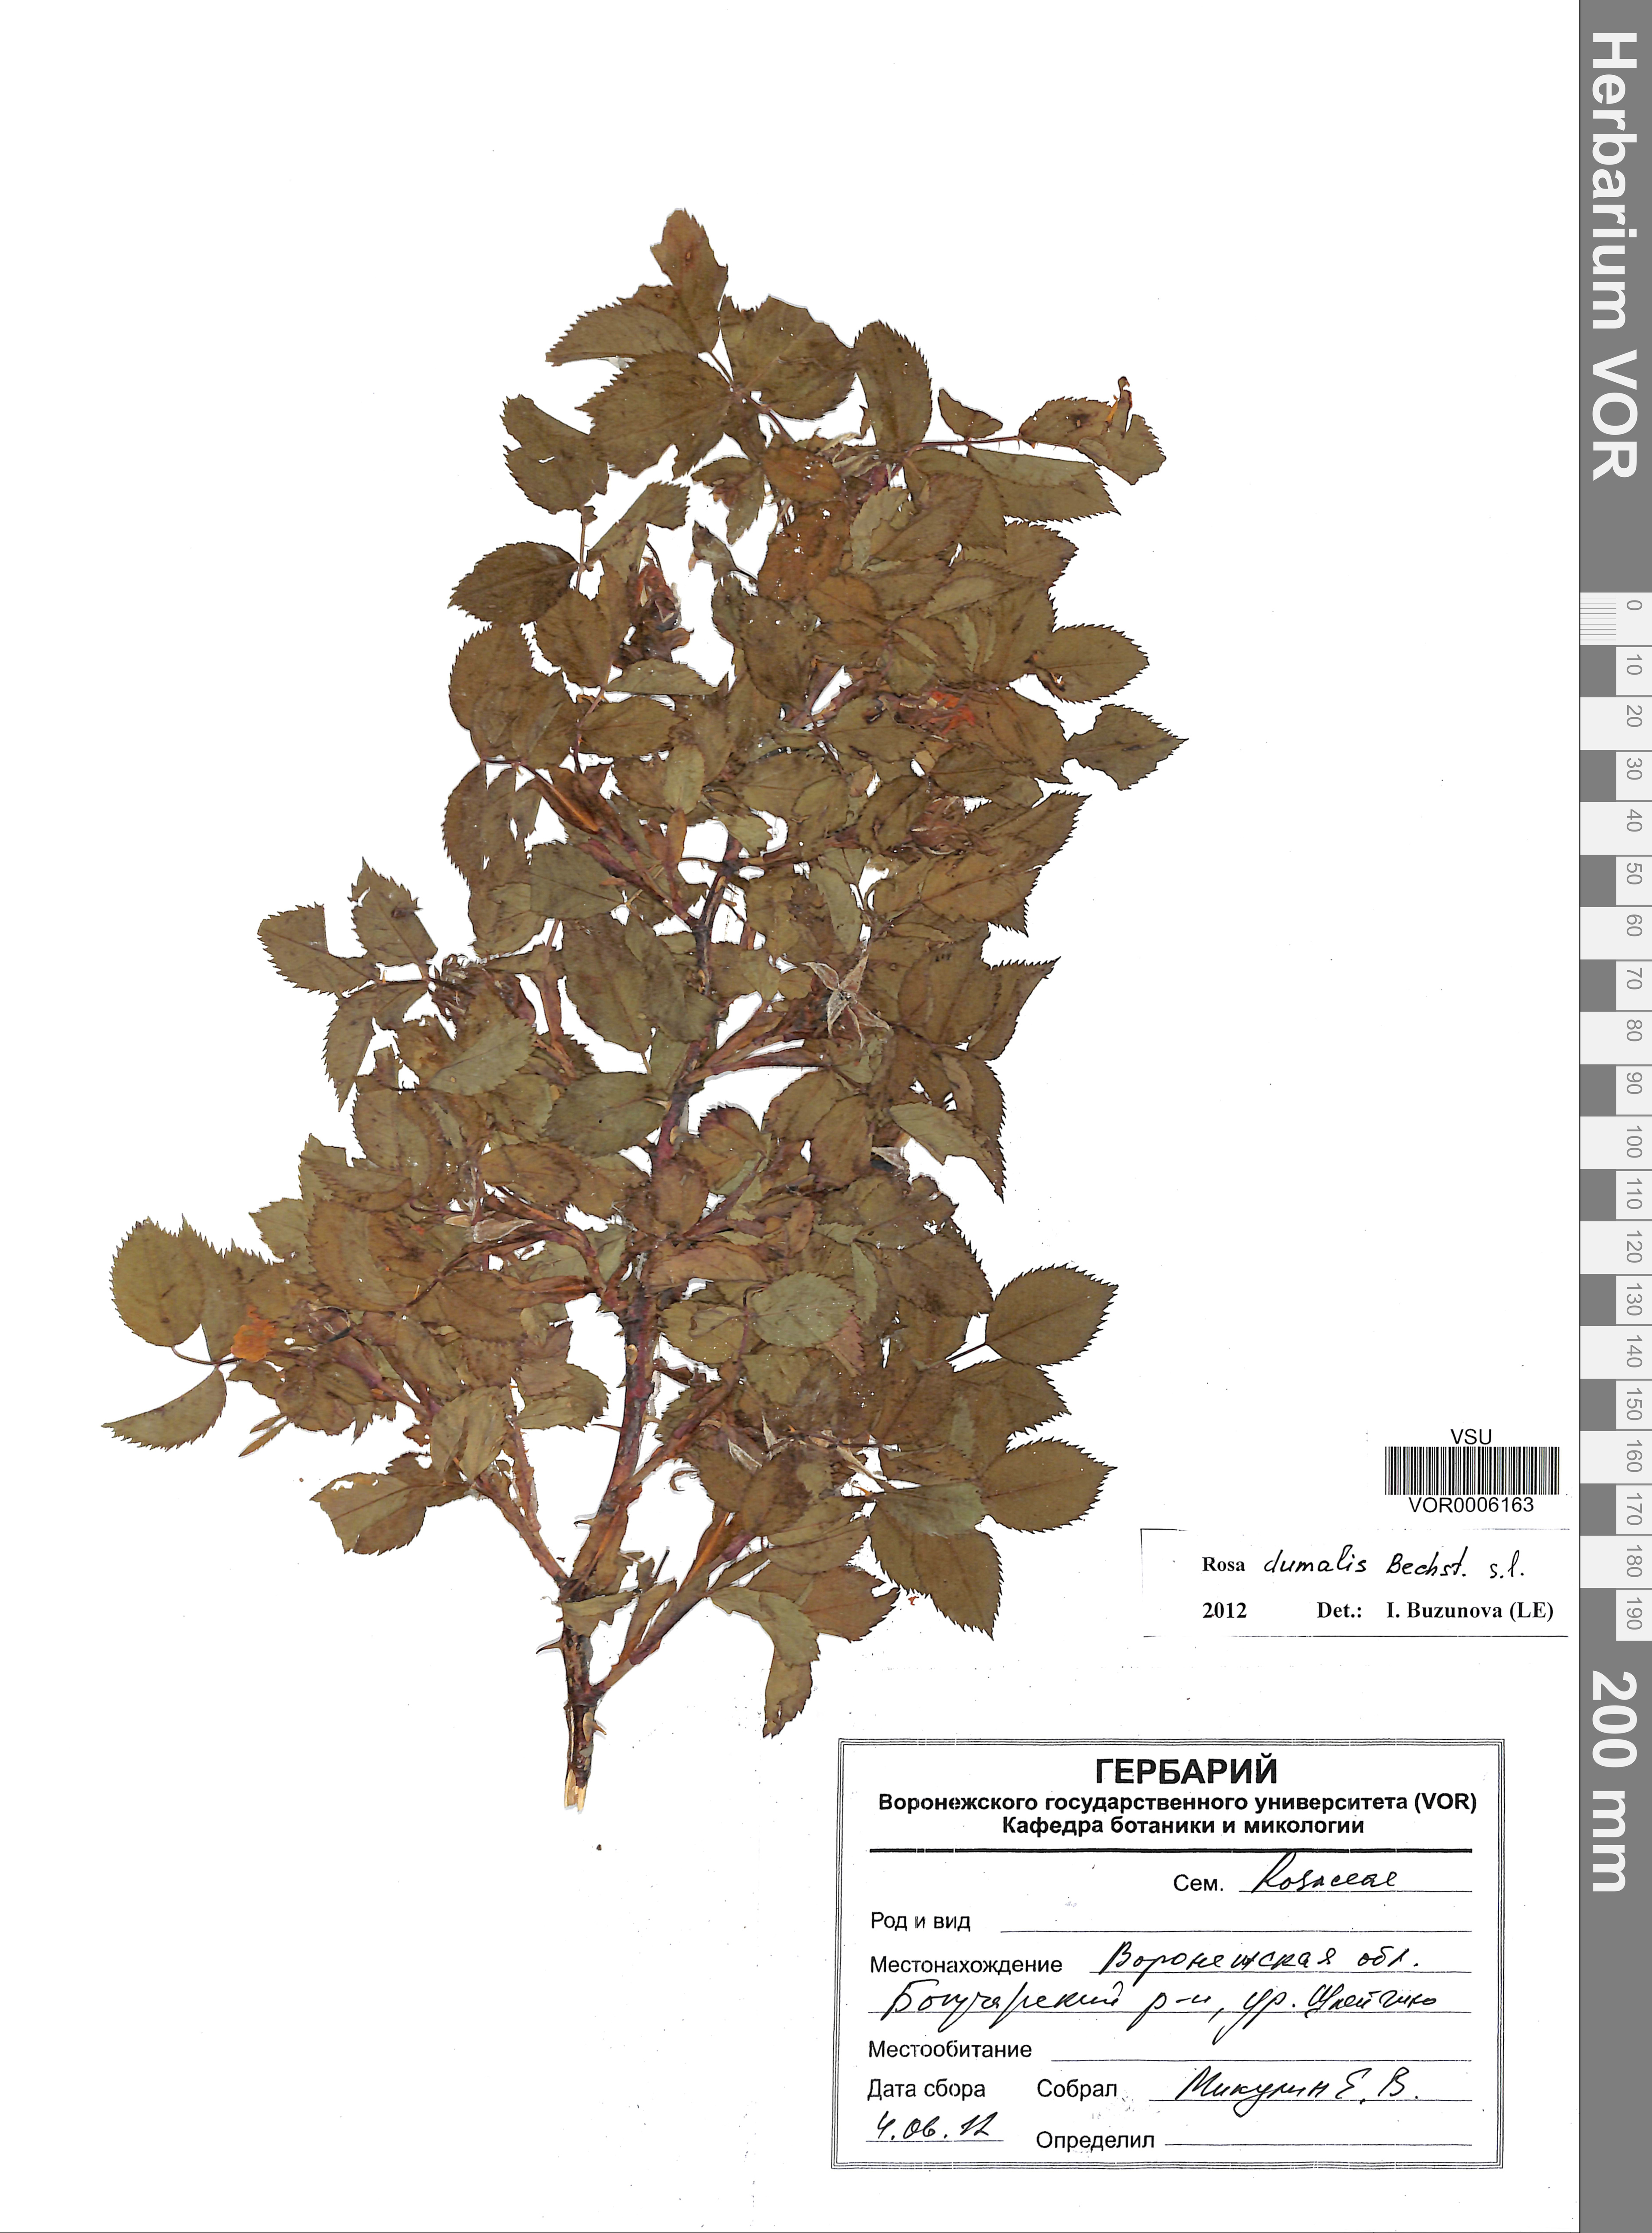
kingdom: Plantae
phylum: Tracheophyta
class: Magnoliopsida
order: Rosales
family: Rosaceae
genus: Rosa
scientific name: Rosa dumalis
